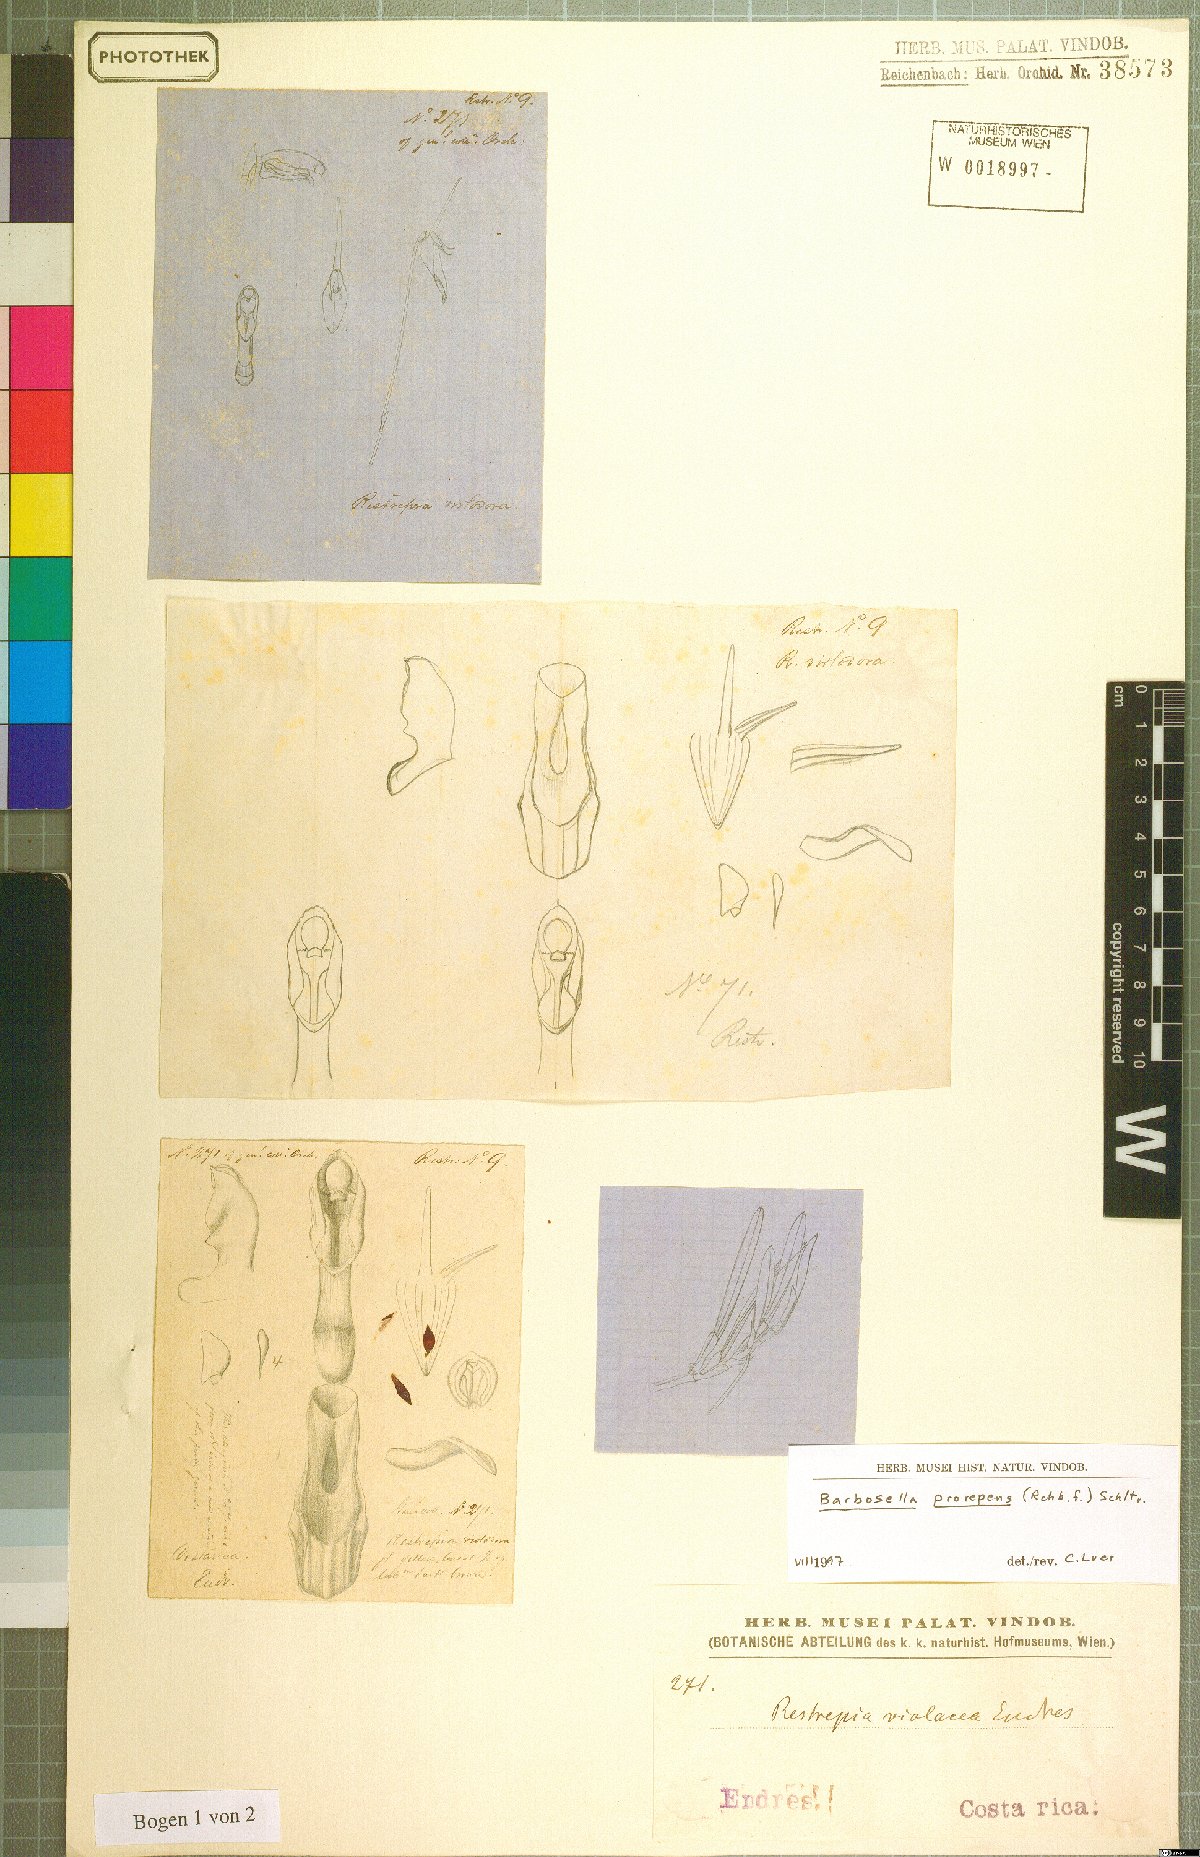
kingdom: Plantae
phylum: Tracheophyta
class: Liliopsida
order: Asparagales
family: Orchidaceae
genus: Barbosella
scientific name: Barbosella prorepens
